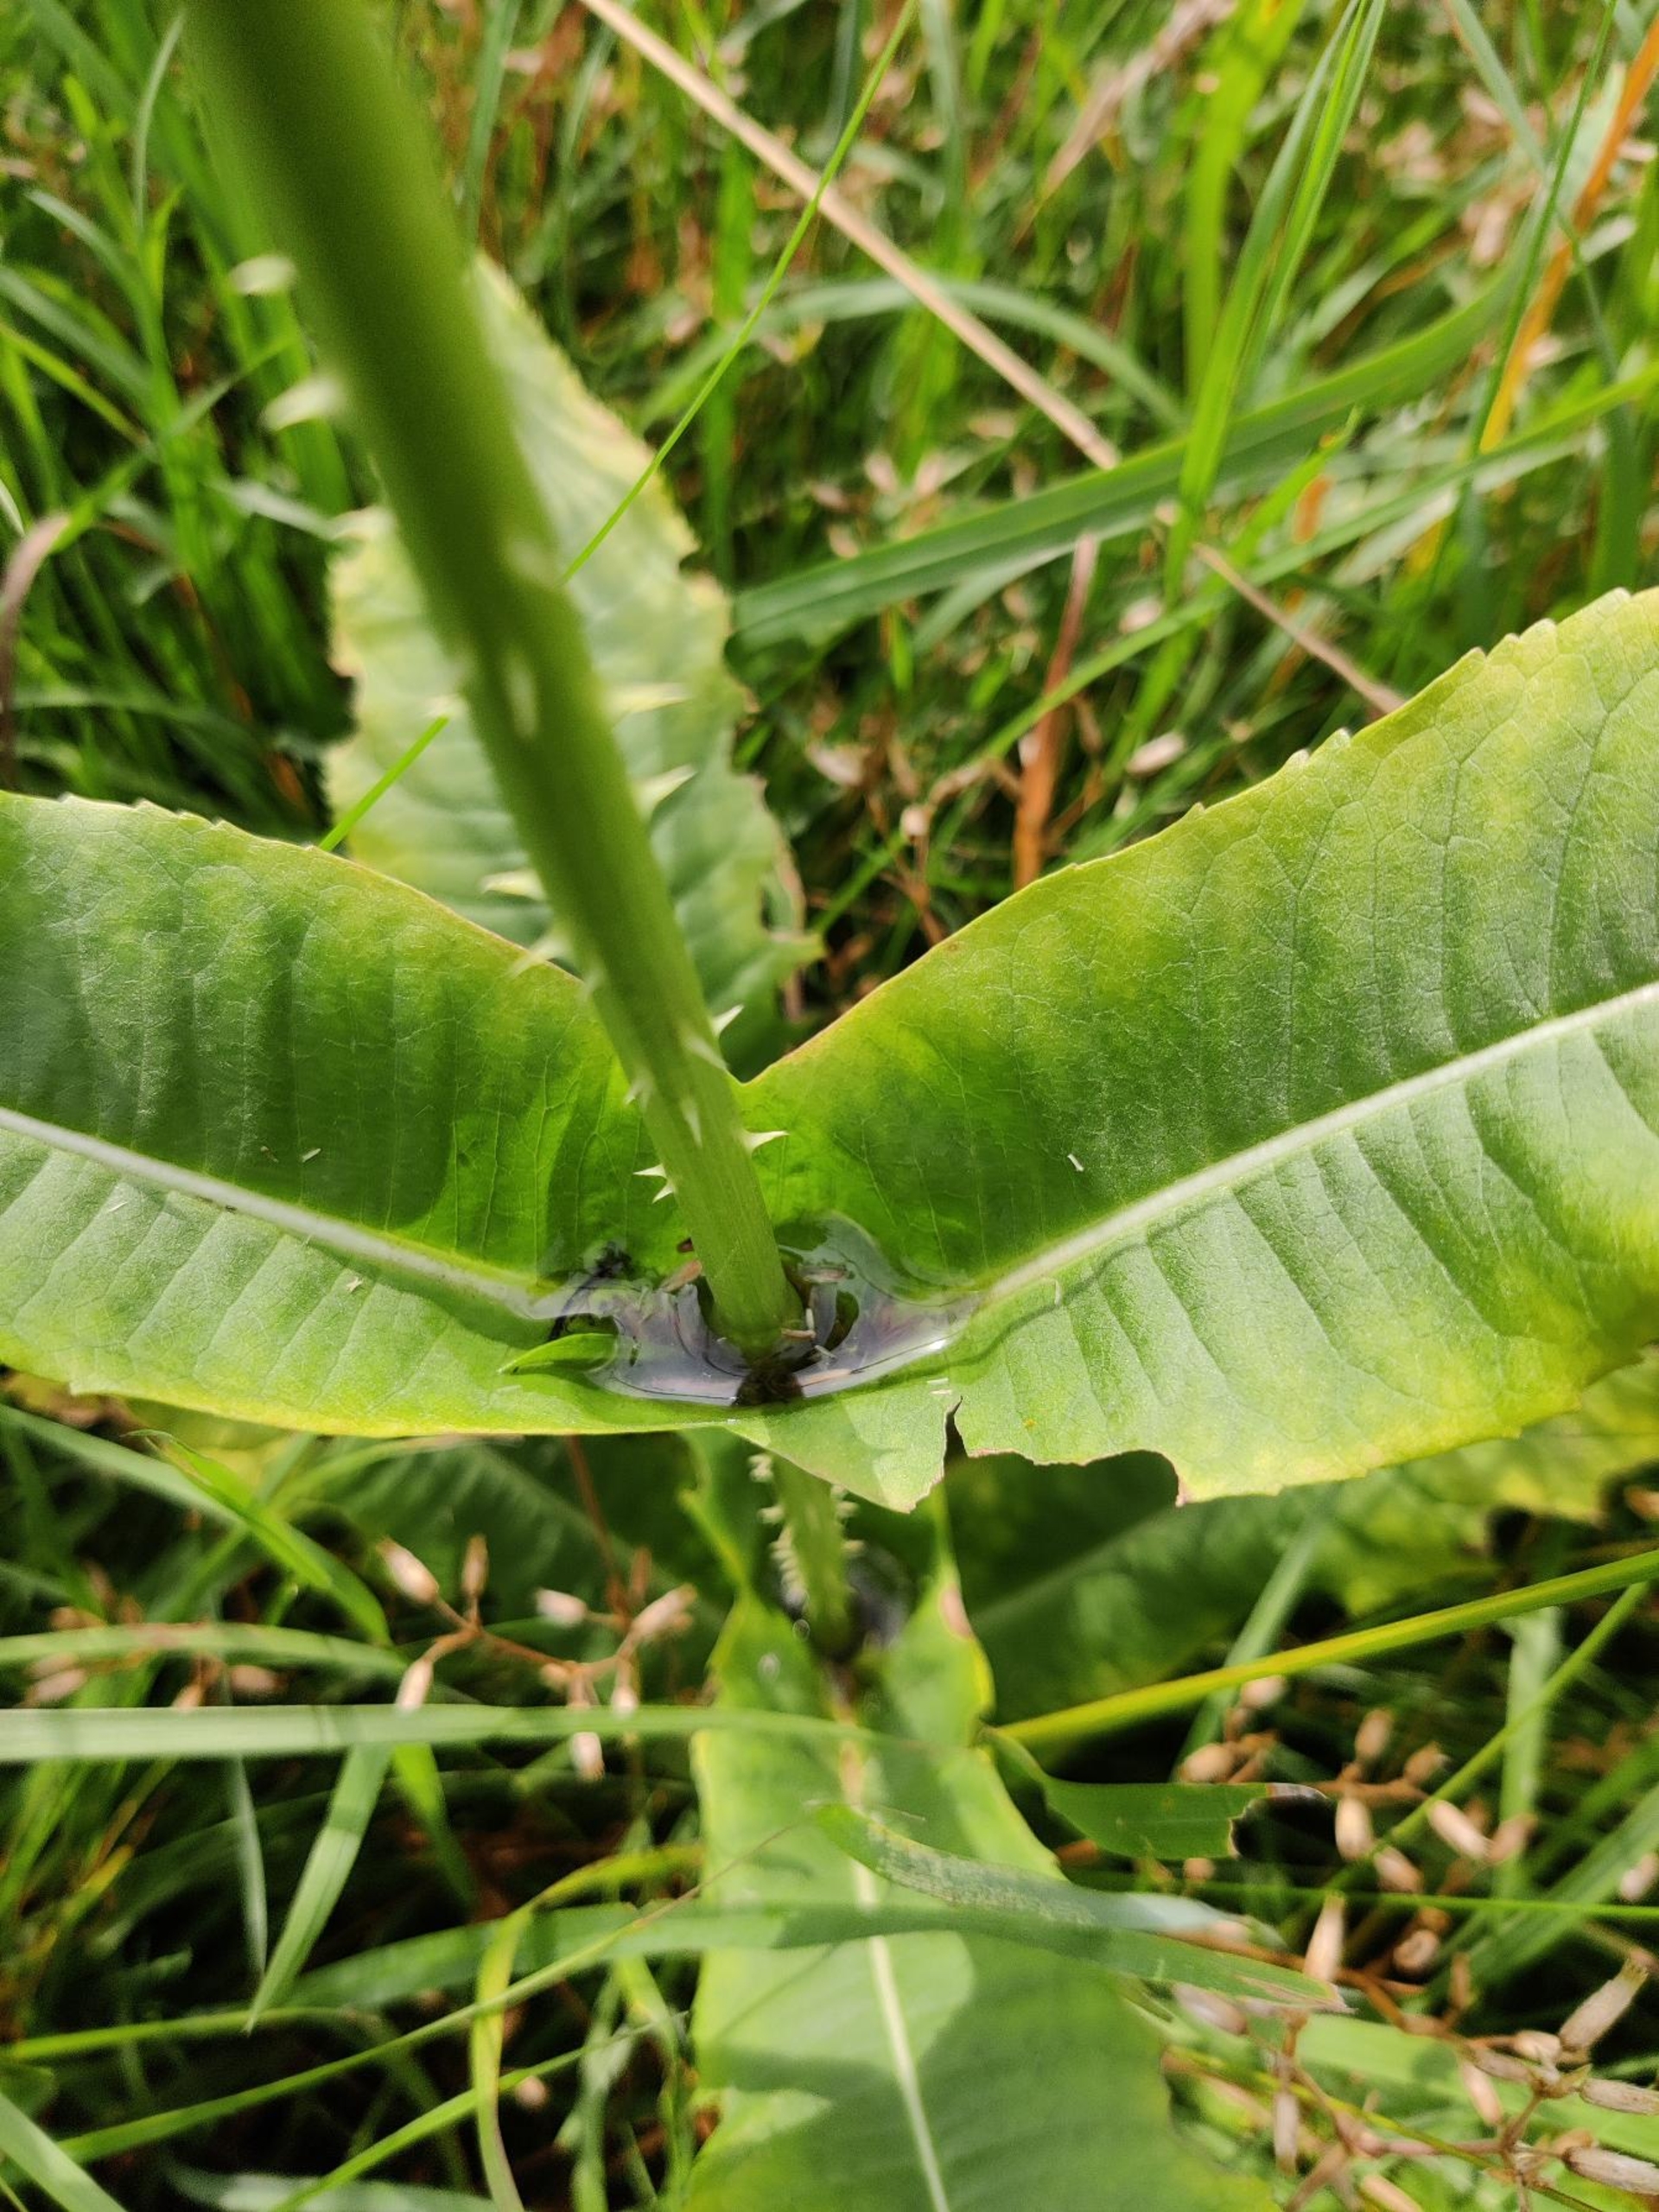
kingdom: Plantae
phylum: Tracheophyta
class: Magnoliopsida
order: Dipsacales
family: Caprifoliaceae
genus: Dipsacus
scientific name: Dipsacus fullonum
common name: Gærde-kartebolle
